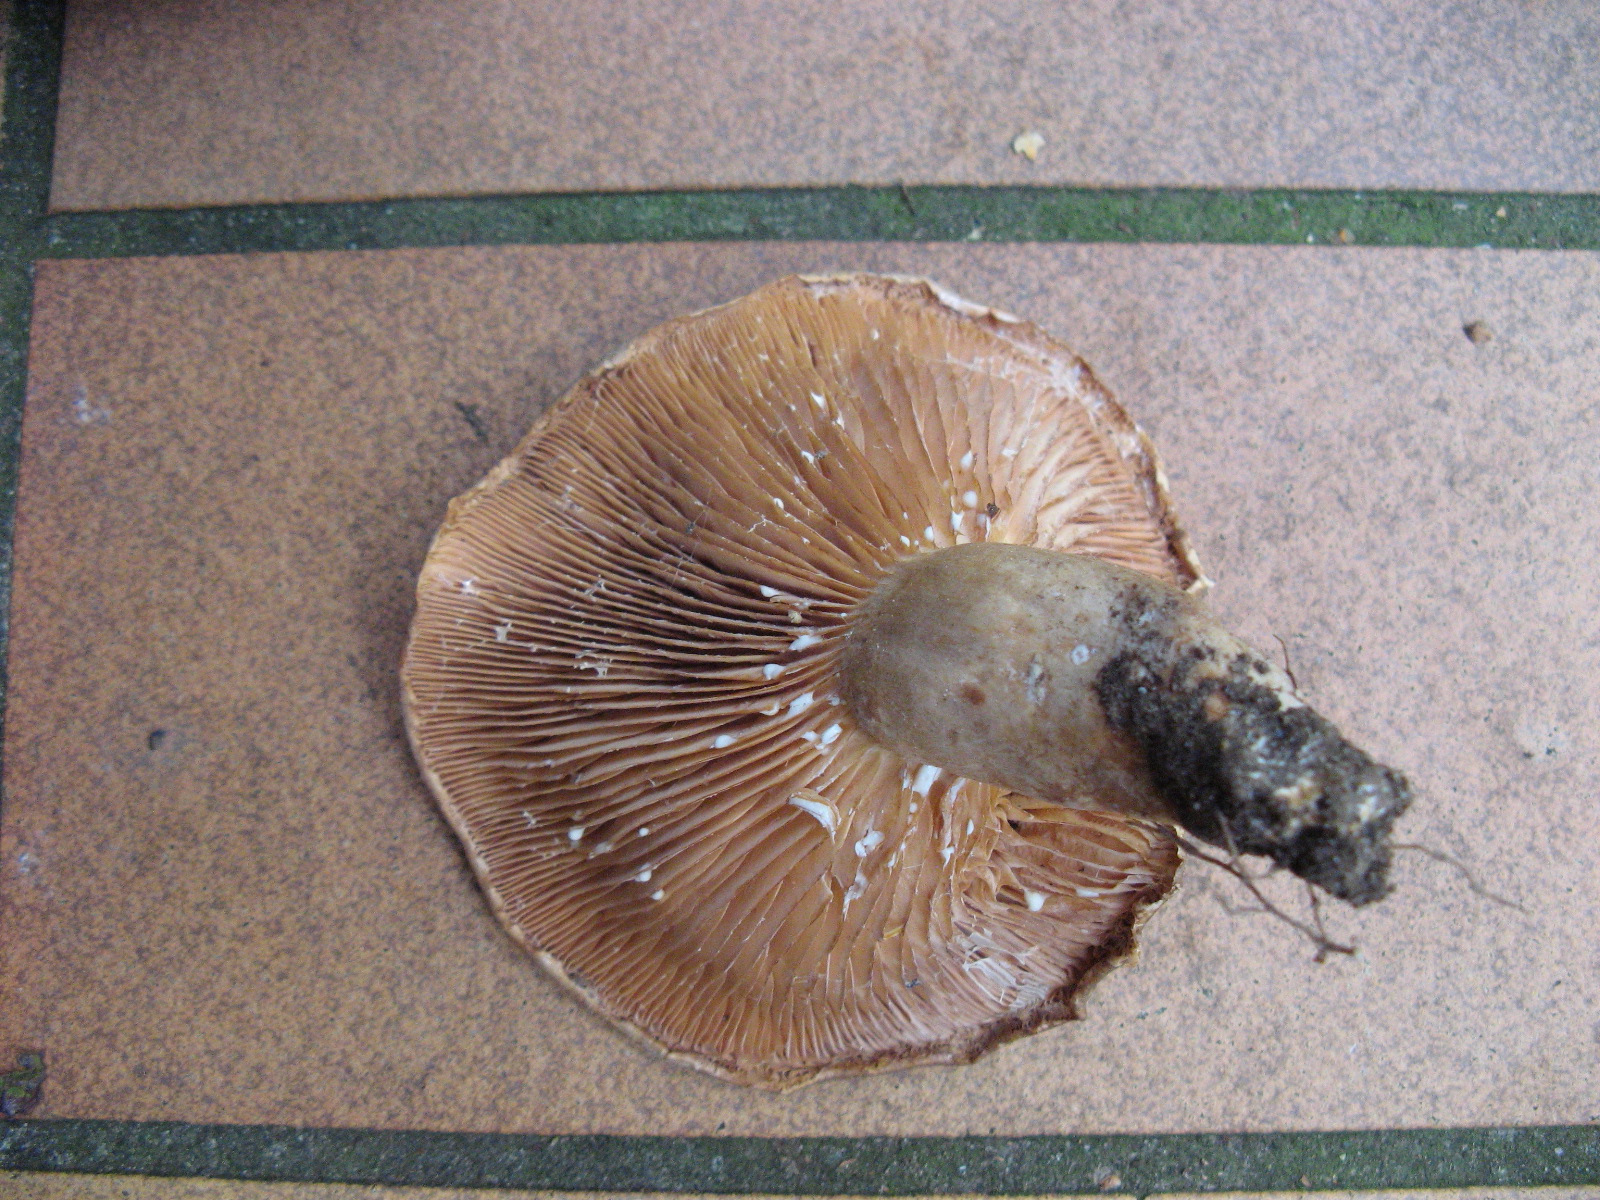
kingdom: Fungi
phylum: Basidiomycota
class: Agaricomycetes
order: Russulales
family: Russulaceae
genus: Lactarius
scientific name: Lactarius pyrogalus
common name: hassel-mælkehat
